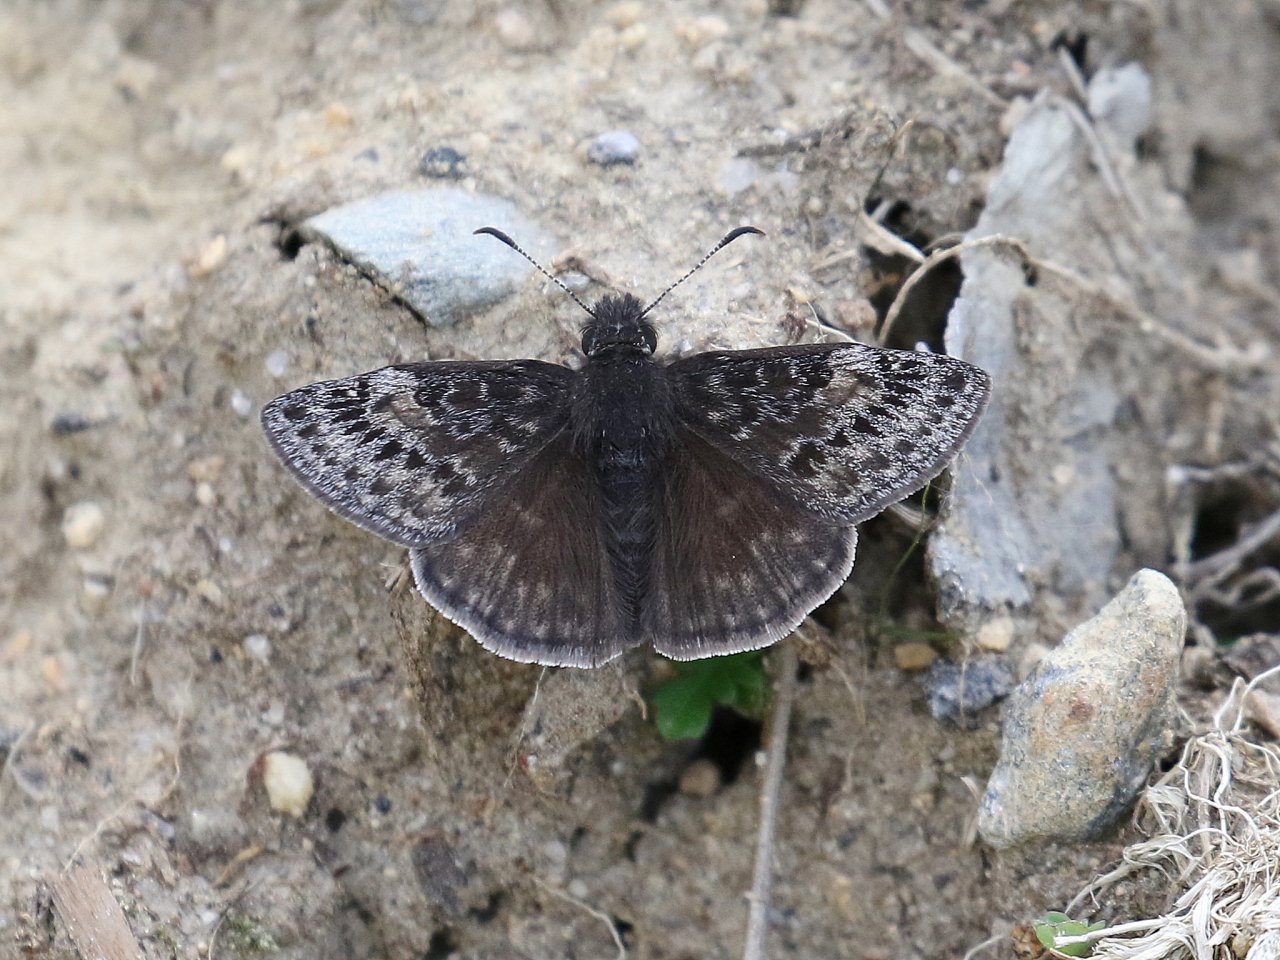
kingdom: Animalia
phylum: Arthropoda
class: Insecta
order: Lepidoptera
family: Hesperiidae
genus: Gesta
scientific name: Gesta
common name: Wild Indigo Duskywing
